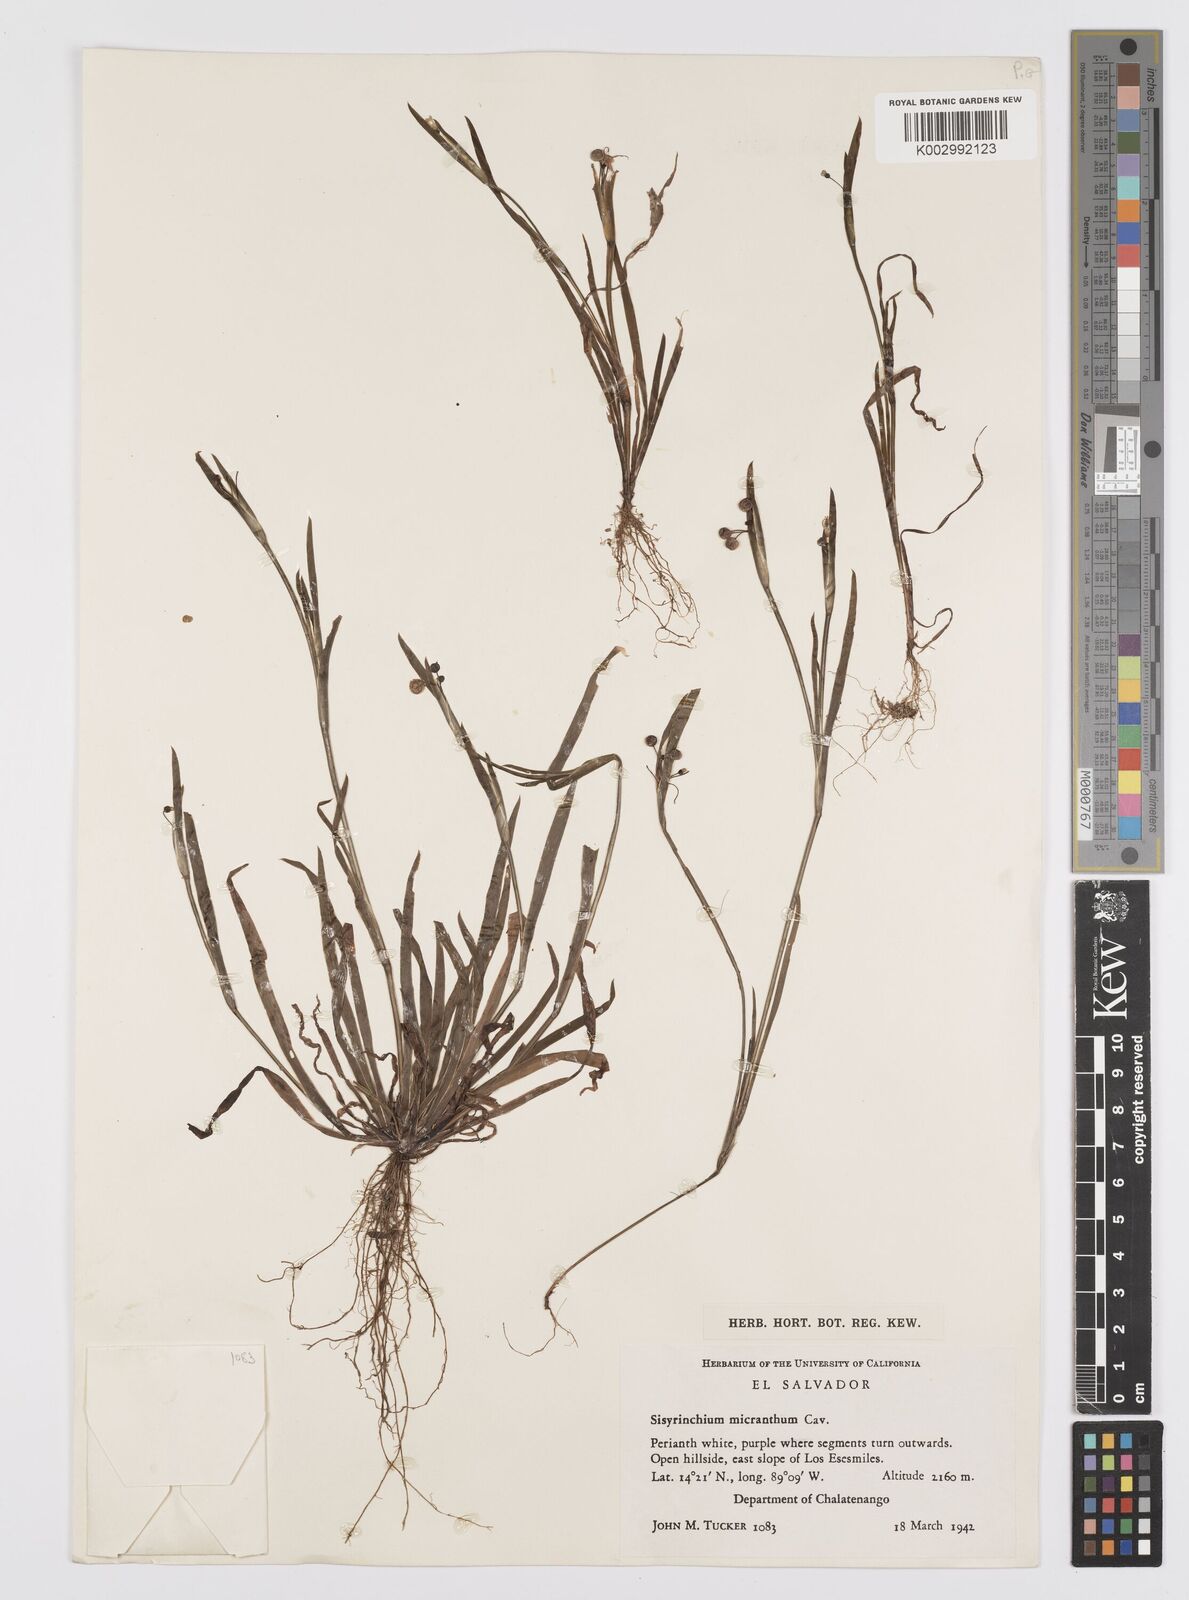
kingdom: Plantae
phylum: Tracheophyta
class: Liliopsida
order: Asparagales
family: Iridaceae
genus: Sisyrinchium
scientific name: Sisyrinchium micranthum
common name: Bermuda pigroot
